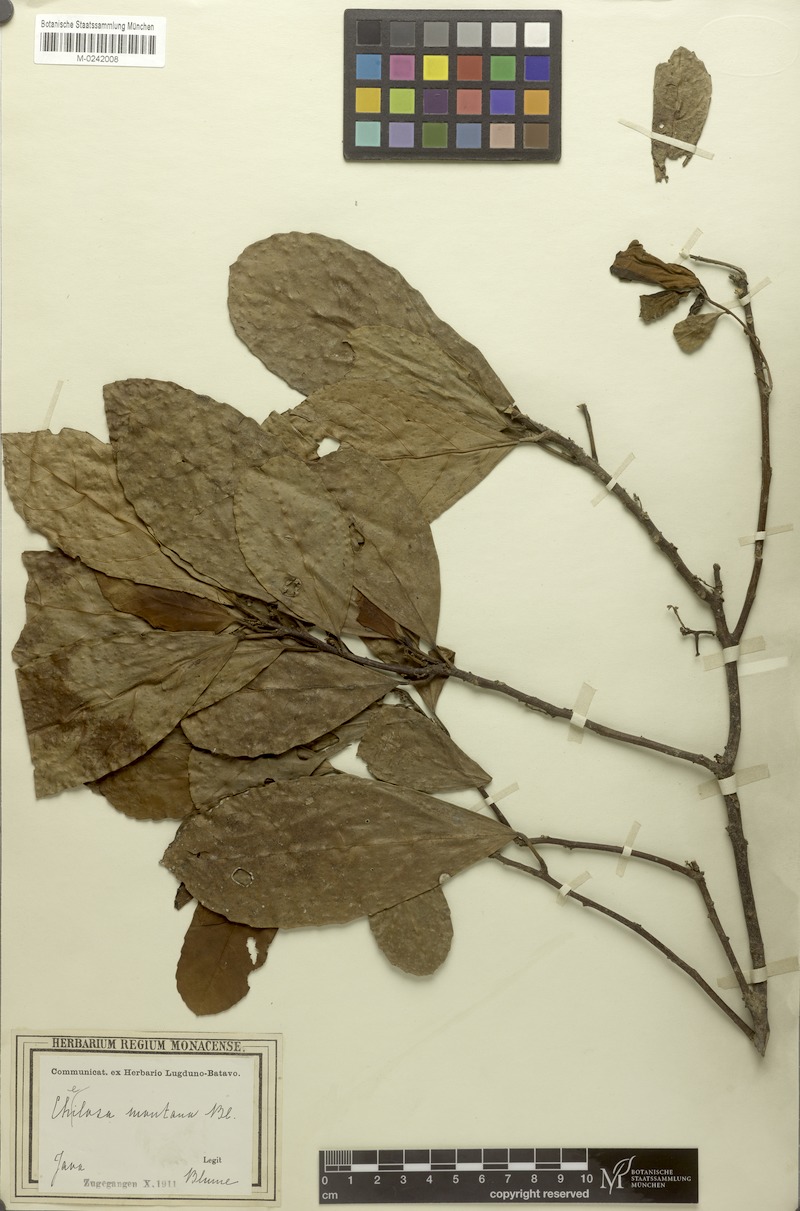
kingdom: Plantae
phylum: Tracheophyta
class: Magnoliopsida
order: Malpighiales
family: Euphorbiaceae
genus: Cheilosa
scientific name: Cheilosa montana
